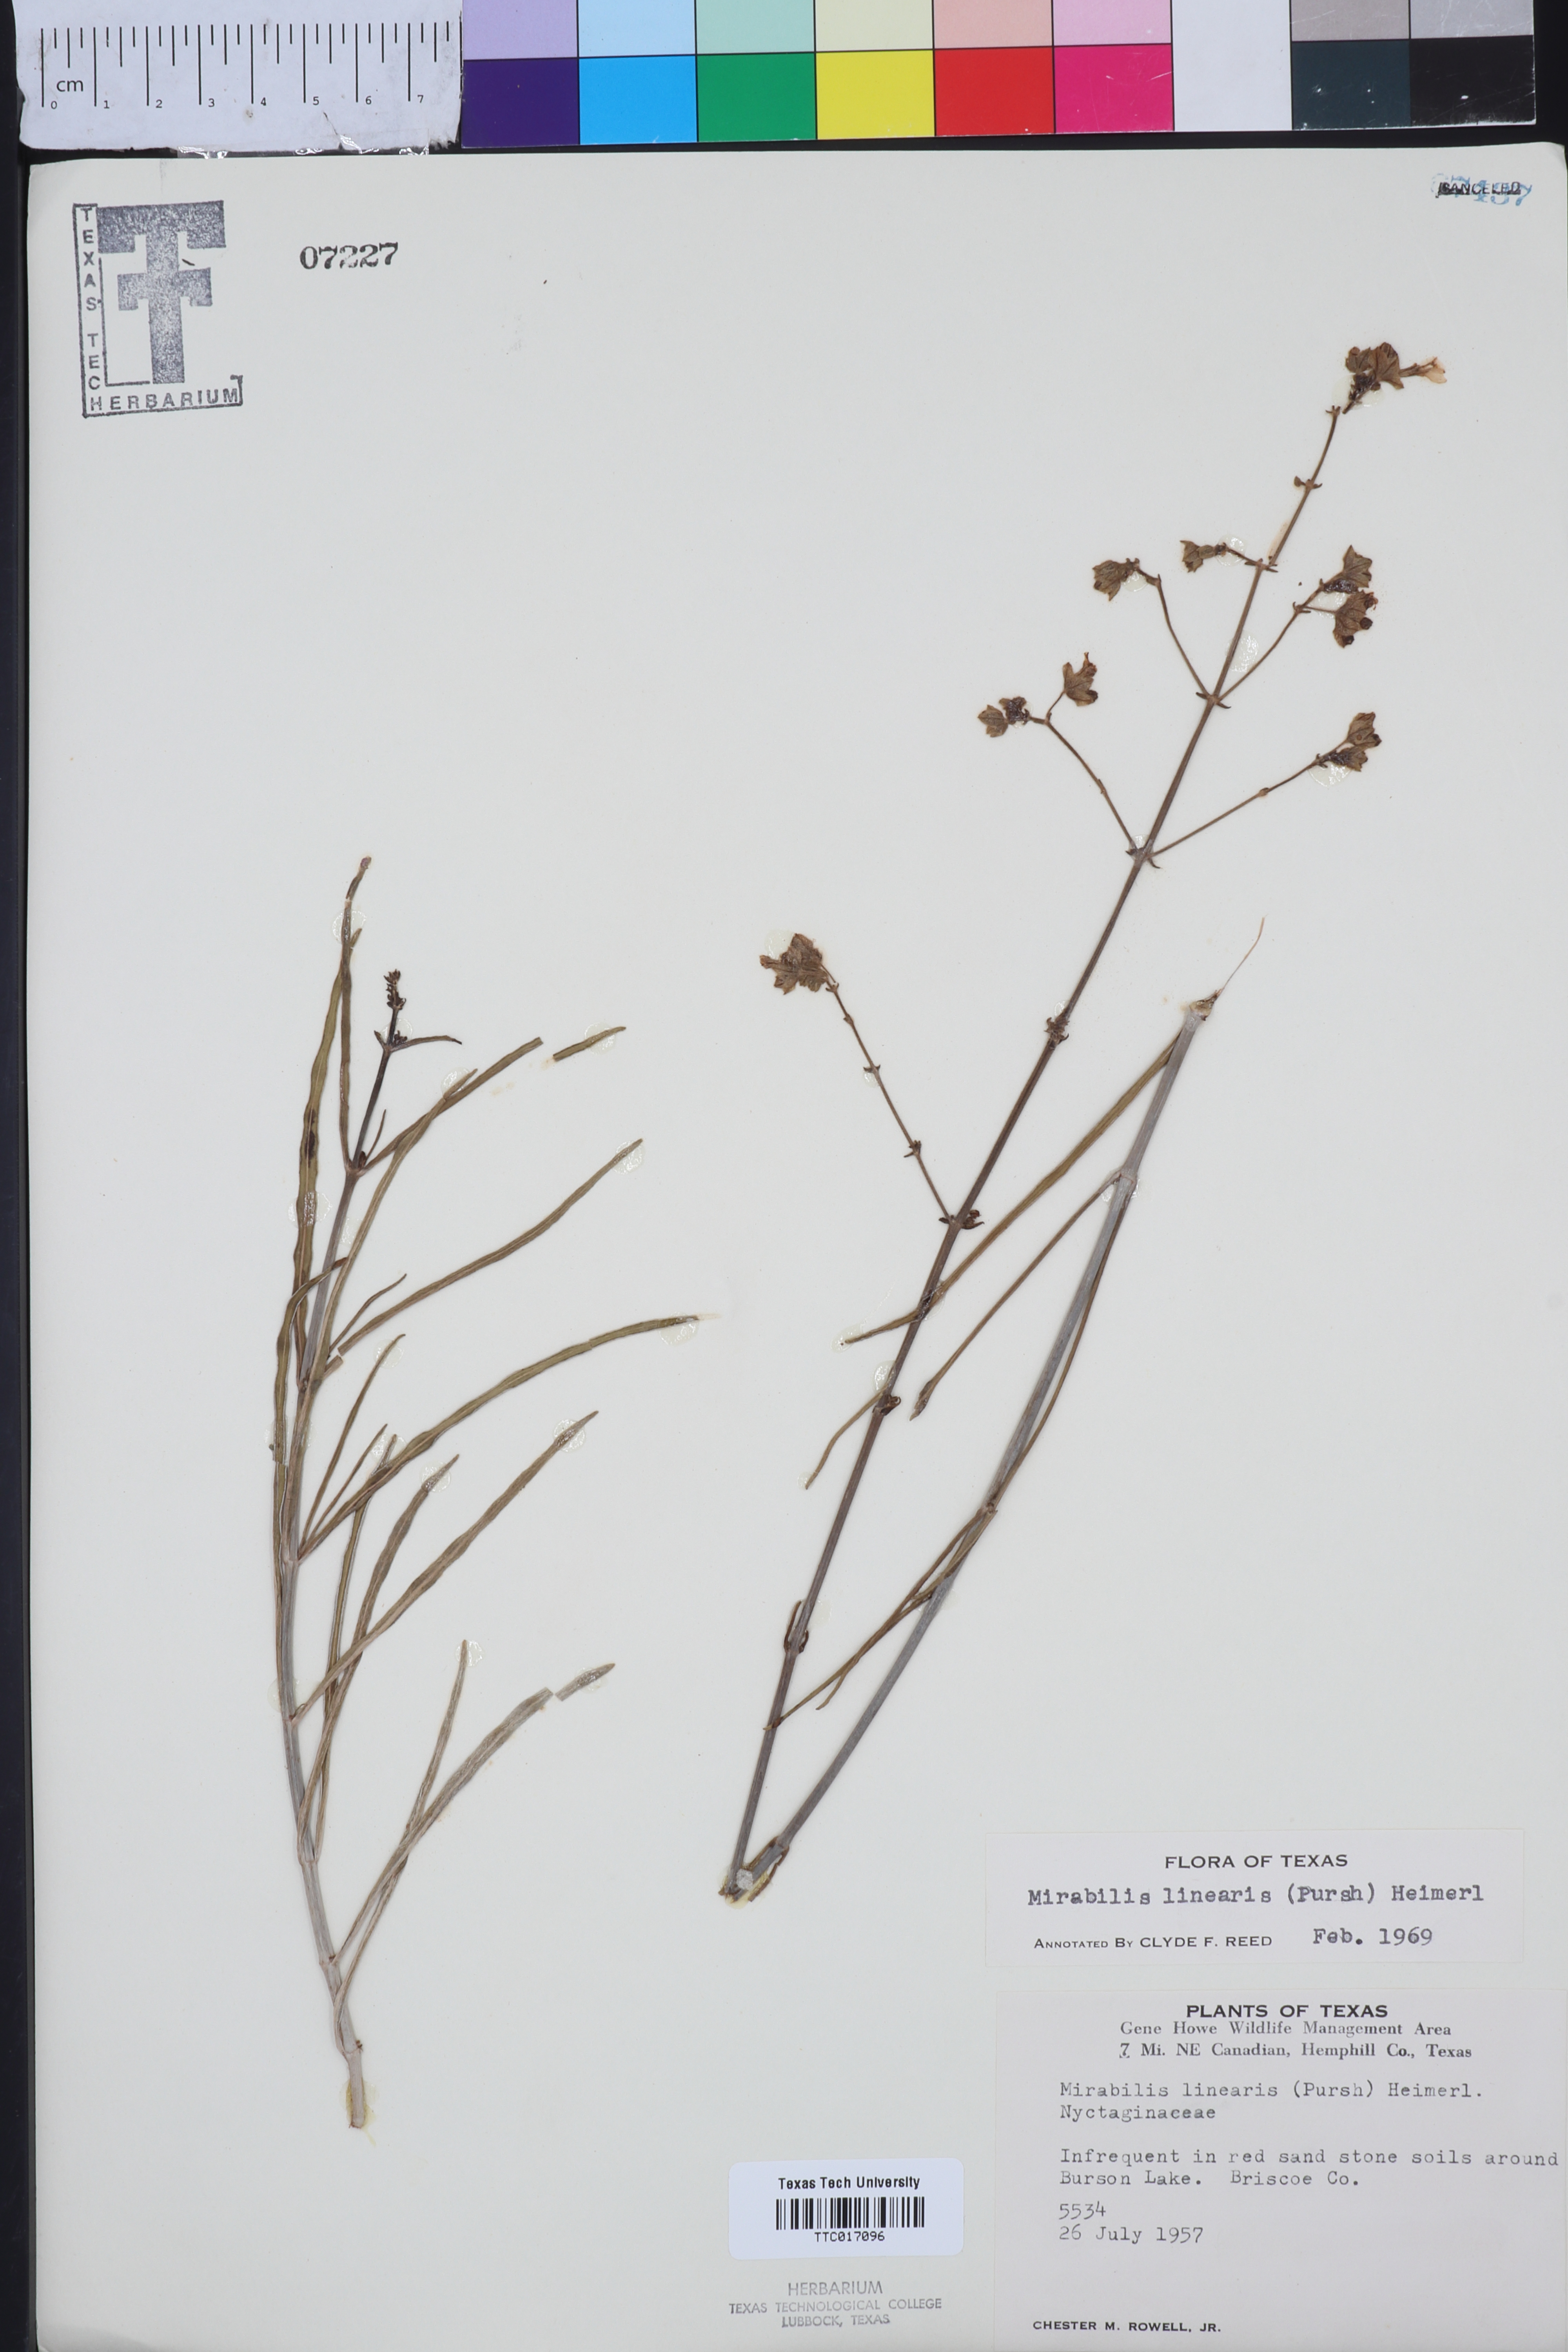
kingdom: Plantae
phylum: Tracheophyta
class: Magnoliopsida
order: Caryophyllales
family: Nyctaginaceae
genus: Mirabilis
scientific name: Mirabilis linearis
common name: Linear-leaved four-o'clock
